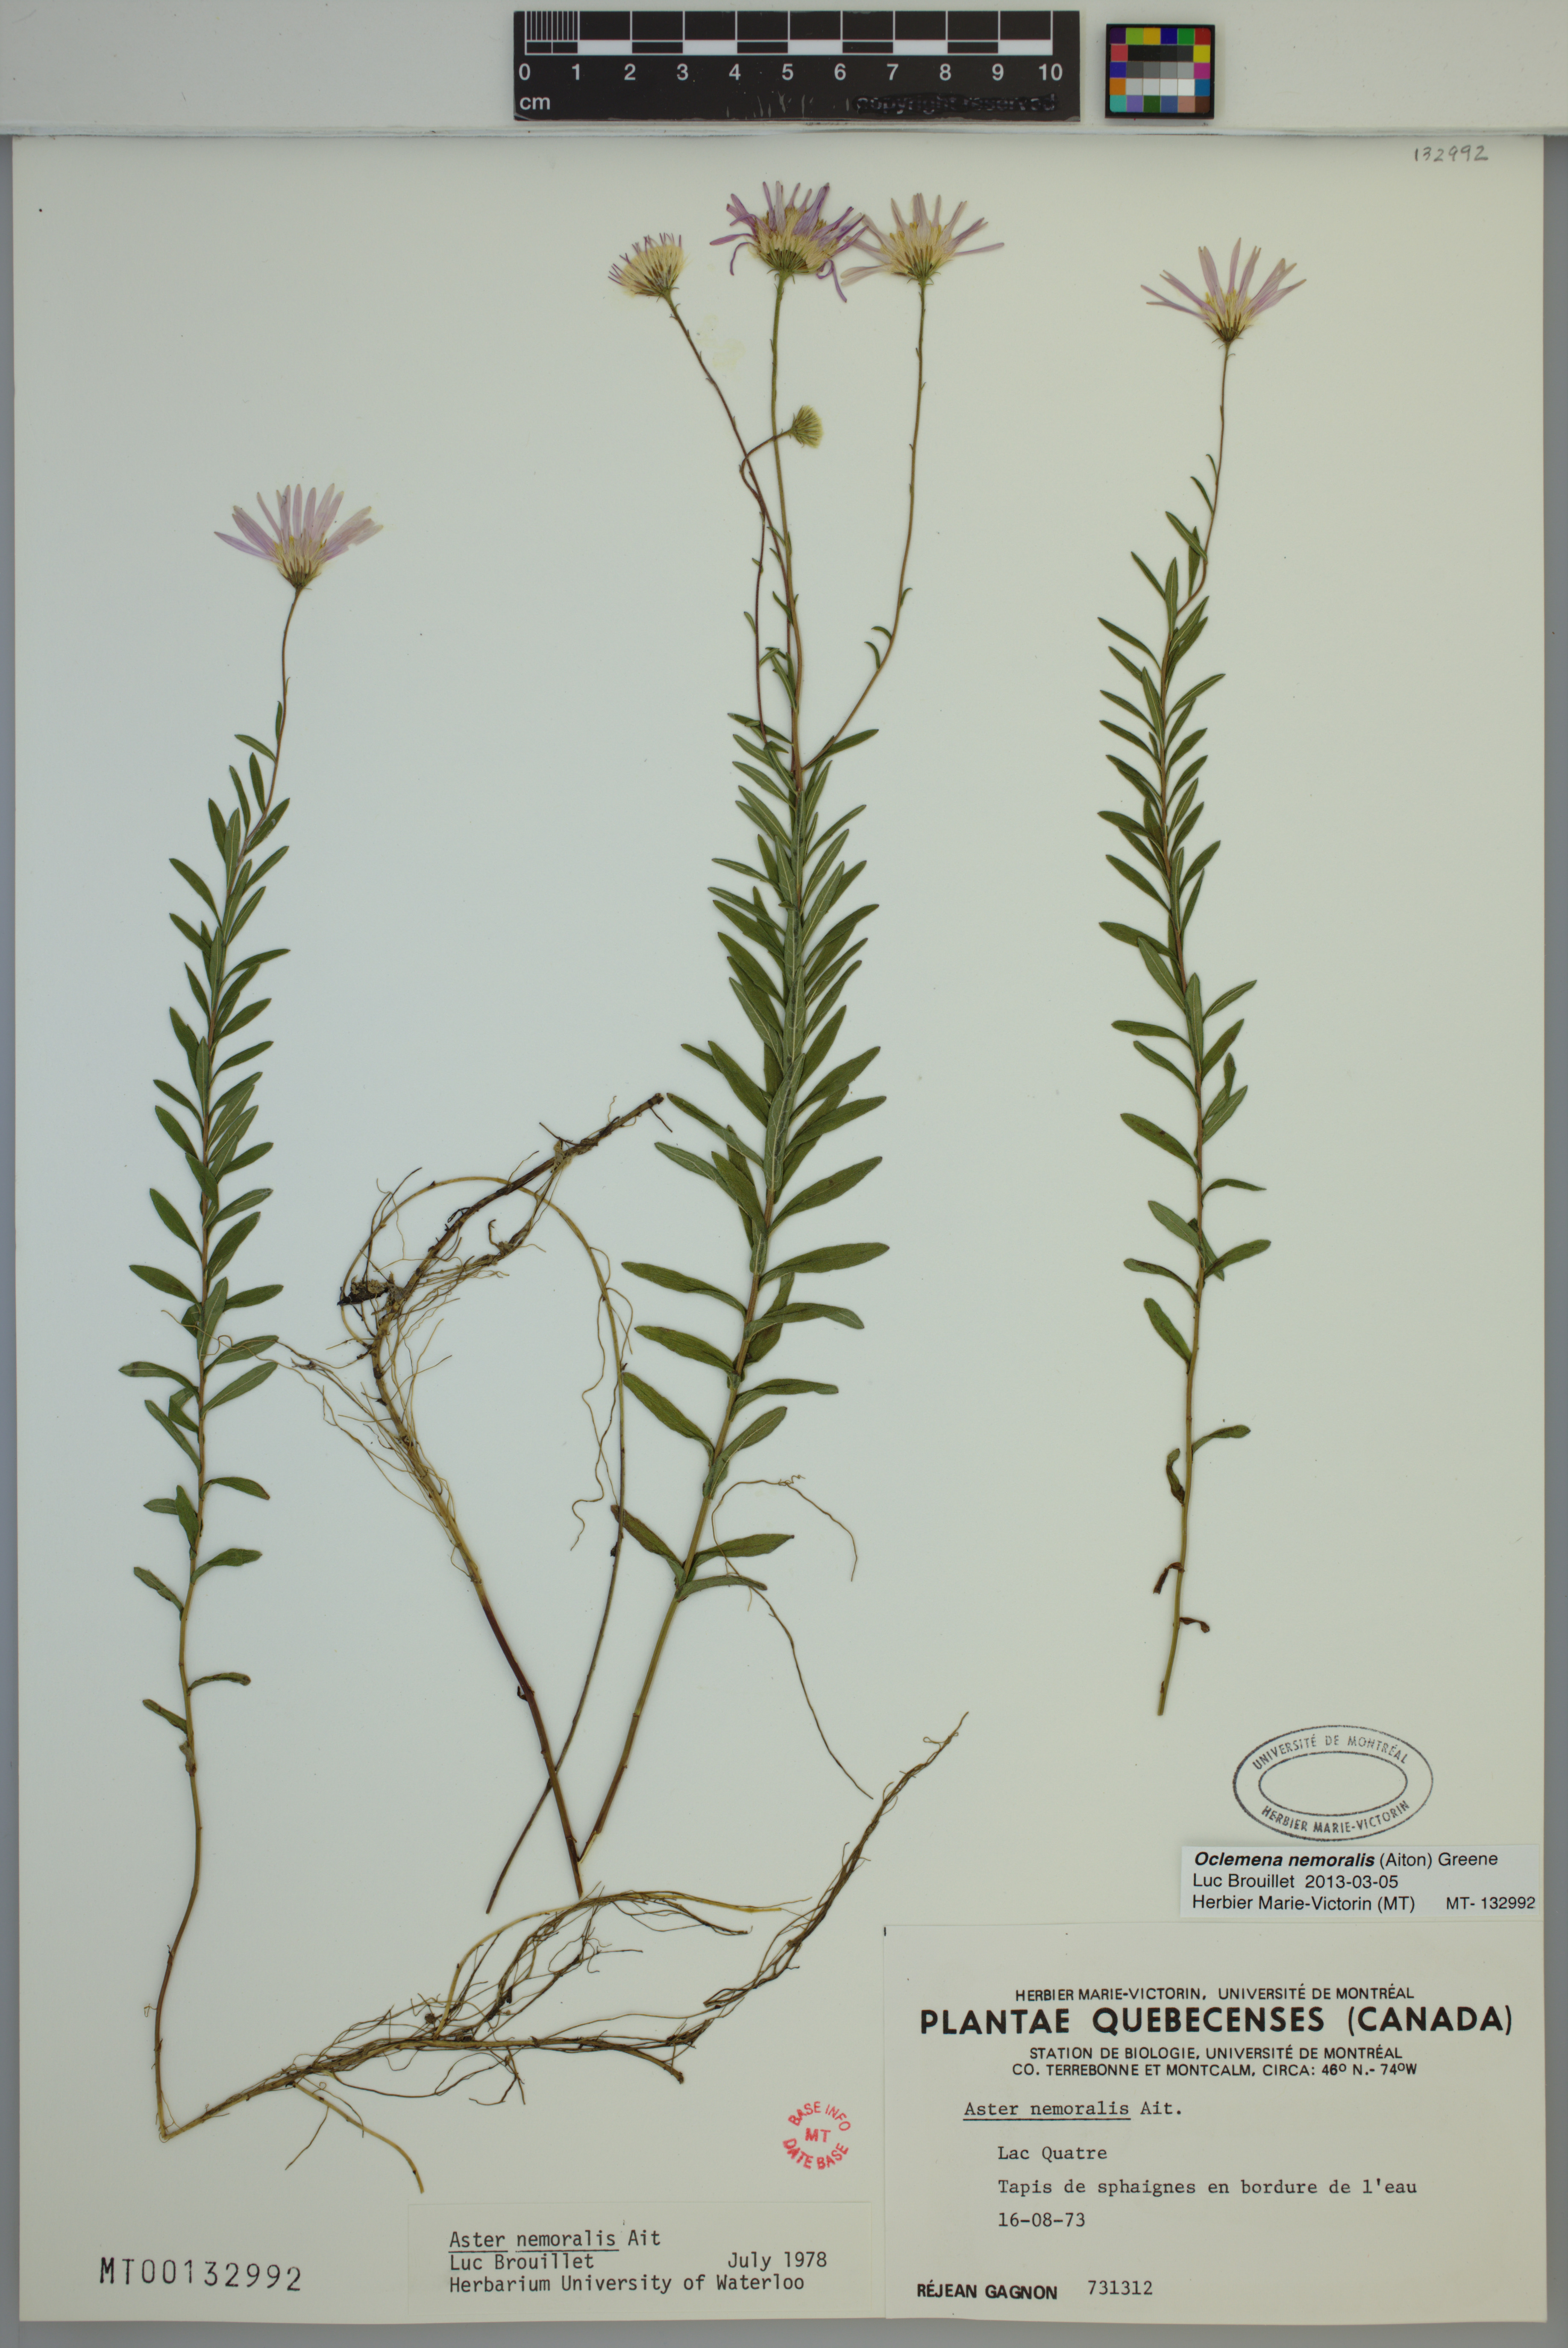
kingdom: Plantae
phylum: Tracheophyta
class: Magnoliopsida
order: Asterales
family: Asteraceae
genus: Oclemena
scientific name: Oclemena nemoralis
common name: Bog aster
